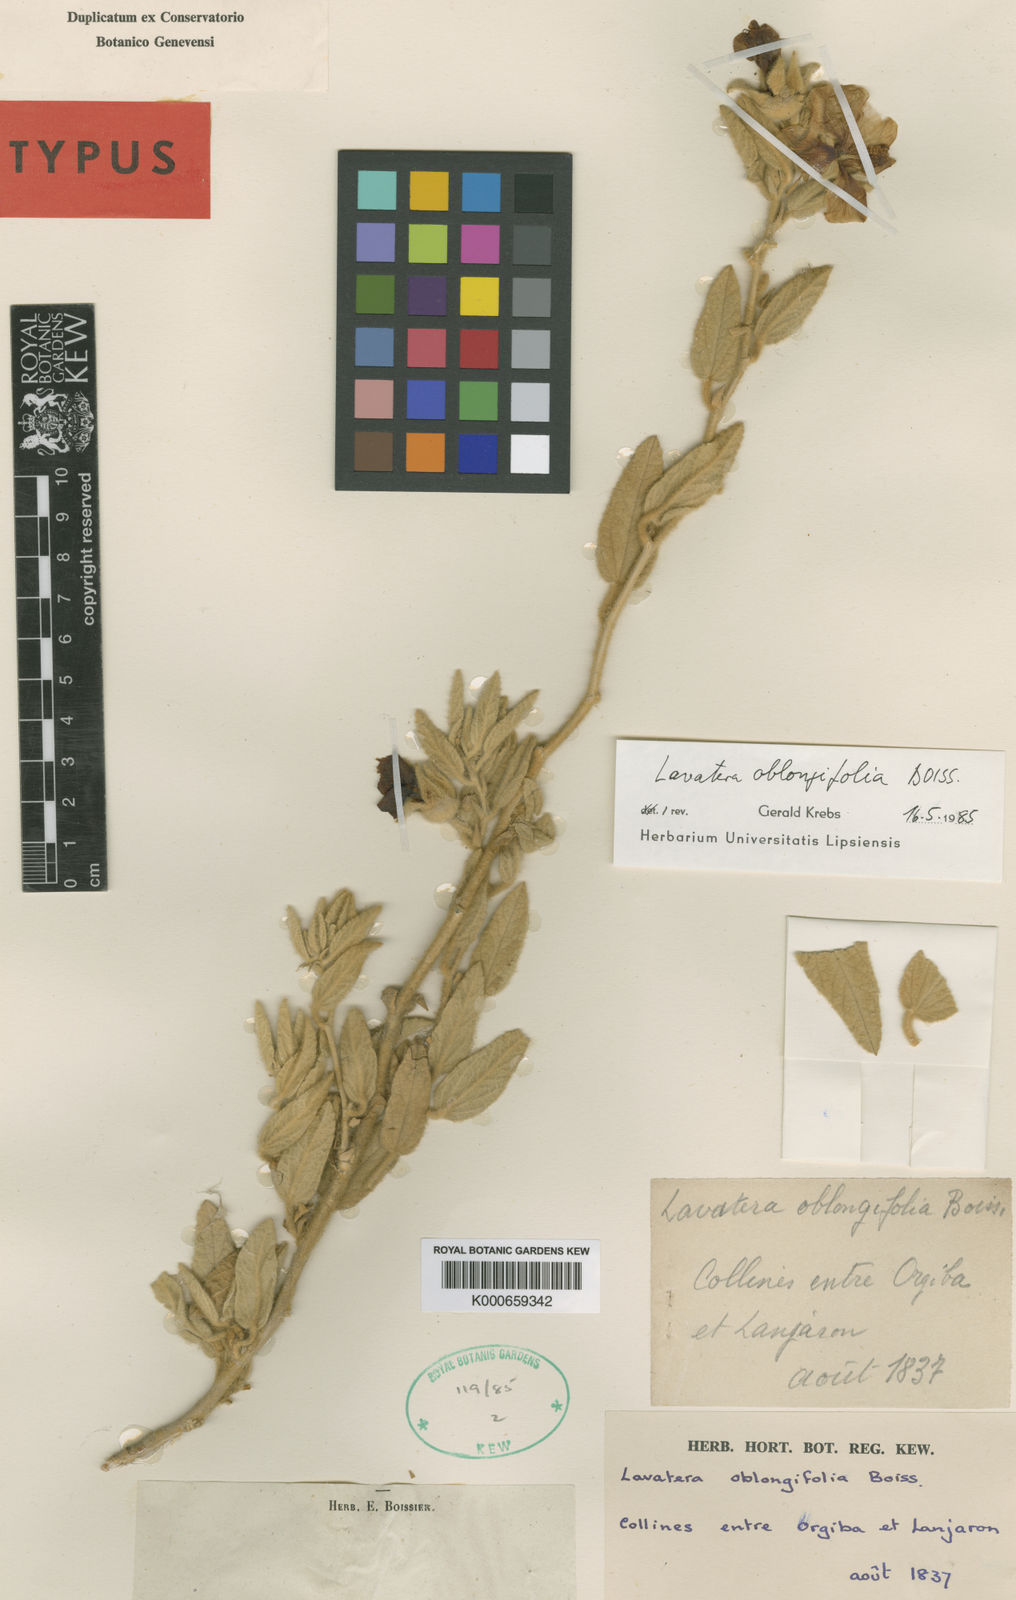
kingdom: Plantae
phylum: Tracheophyta
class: Magnoliopsida
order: Malvales
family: Malvaceae
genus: Malva
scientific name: Malva oblongifolia
